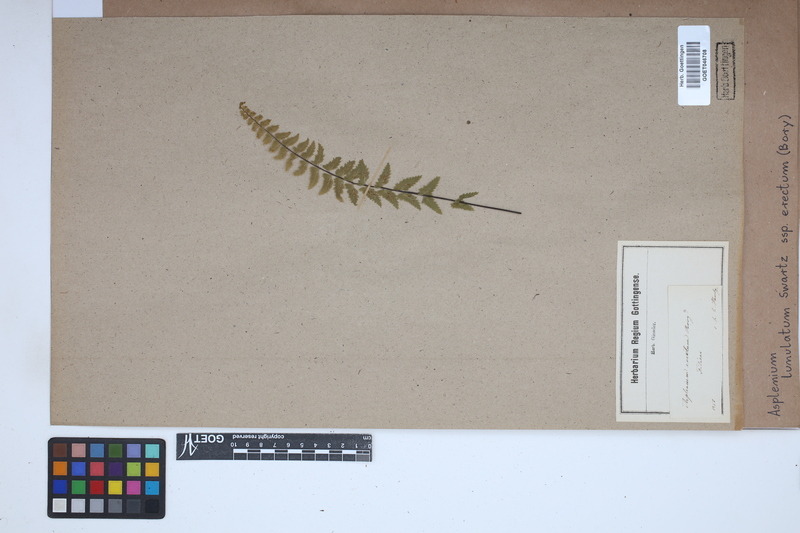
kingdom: Plantae
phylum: Tracheophyta
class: Polypodiopsida
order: Polypodiales
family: Aspleniaceae
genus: Asplenium
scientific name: Asplenium erectum
